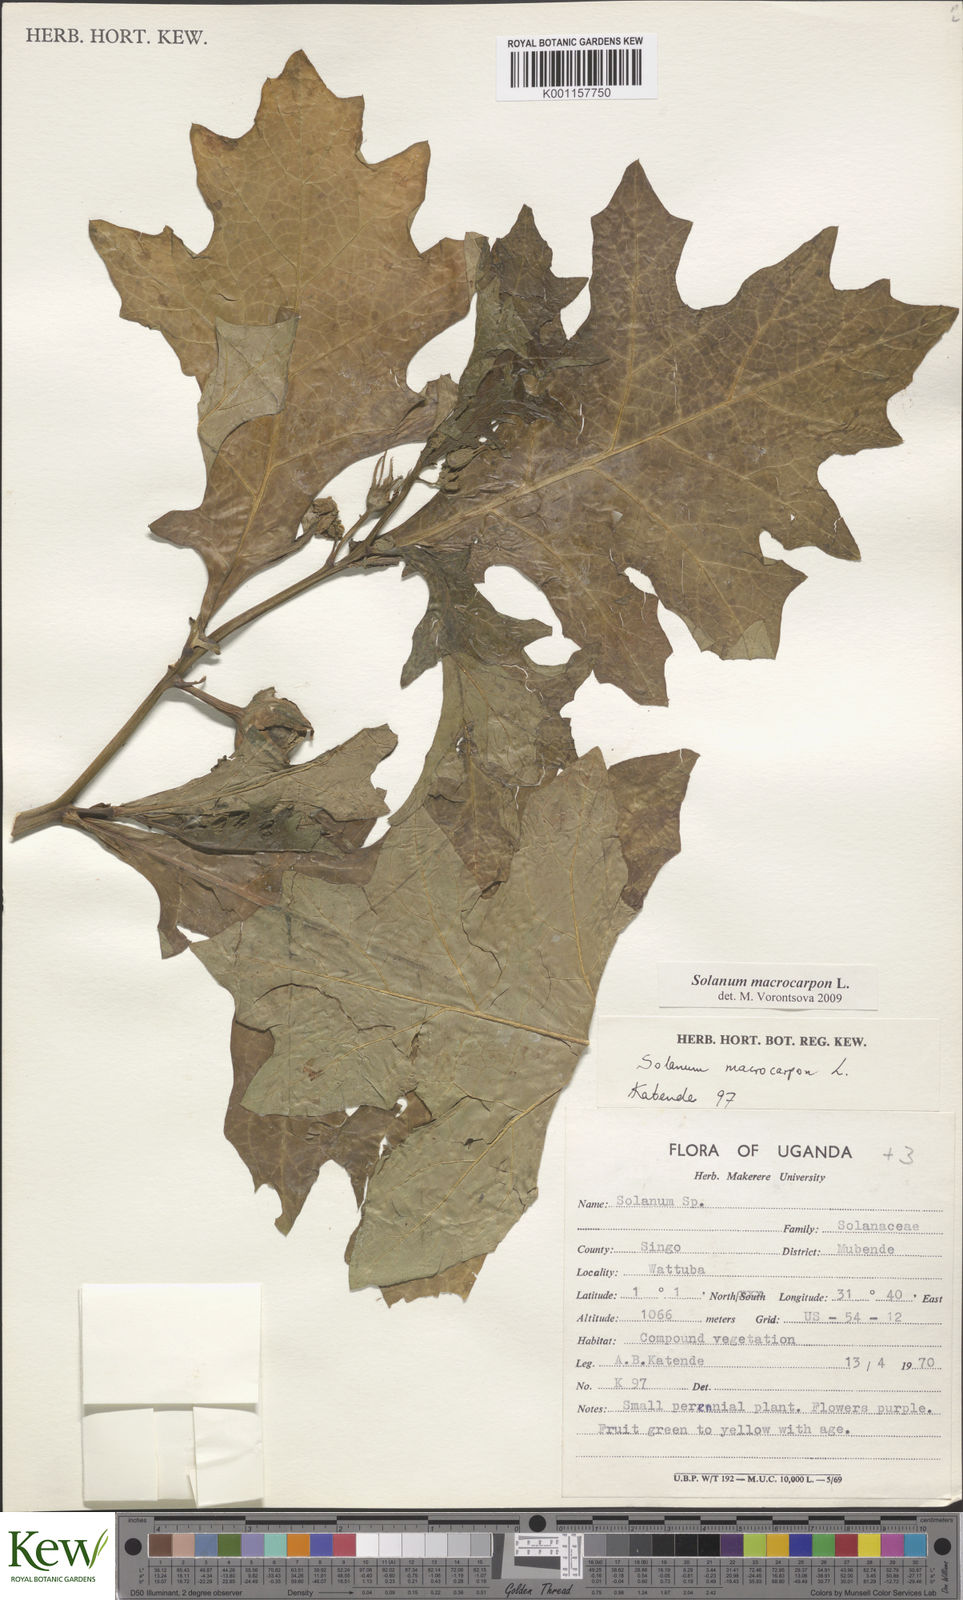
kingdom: Plantae
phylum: Tracheophyta
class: Magnoliopsida
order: Solanales
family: Solanaceae
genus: Solanum
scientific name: Solanum macrocarpon
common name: African eggplant
